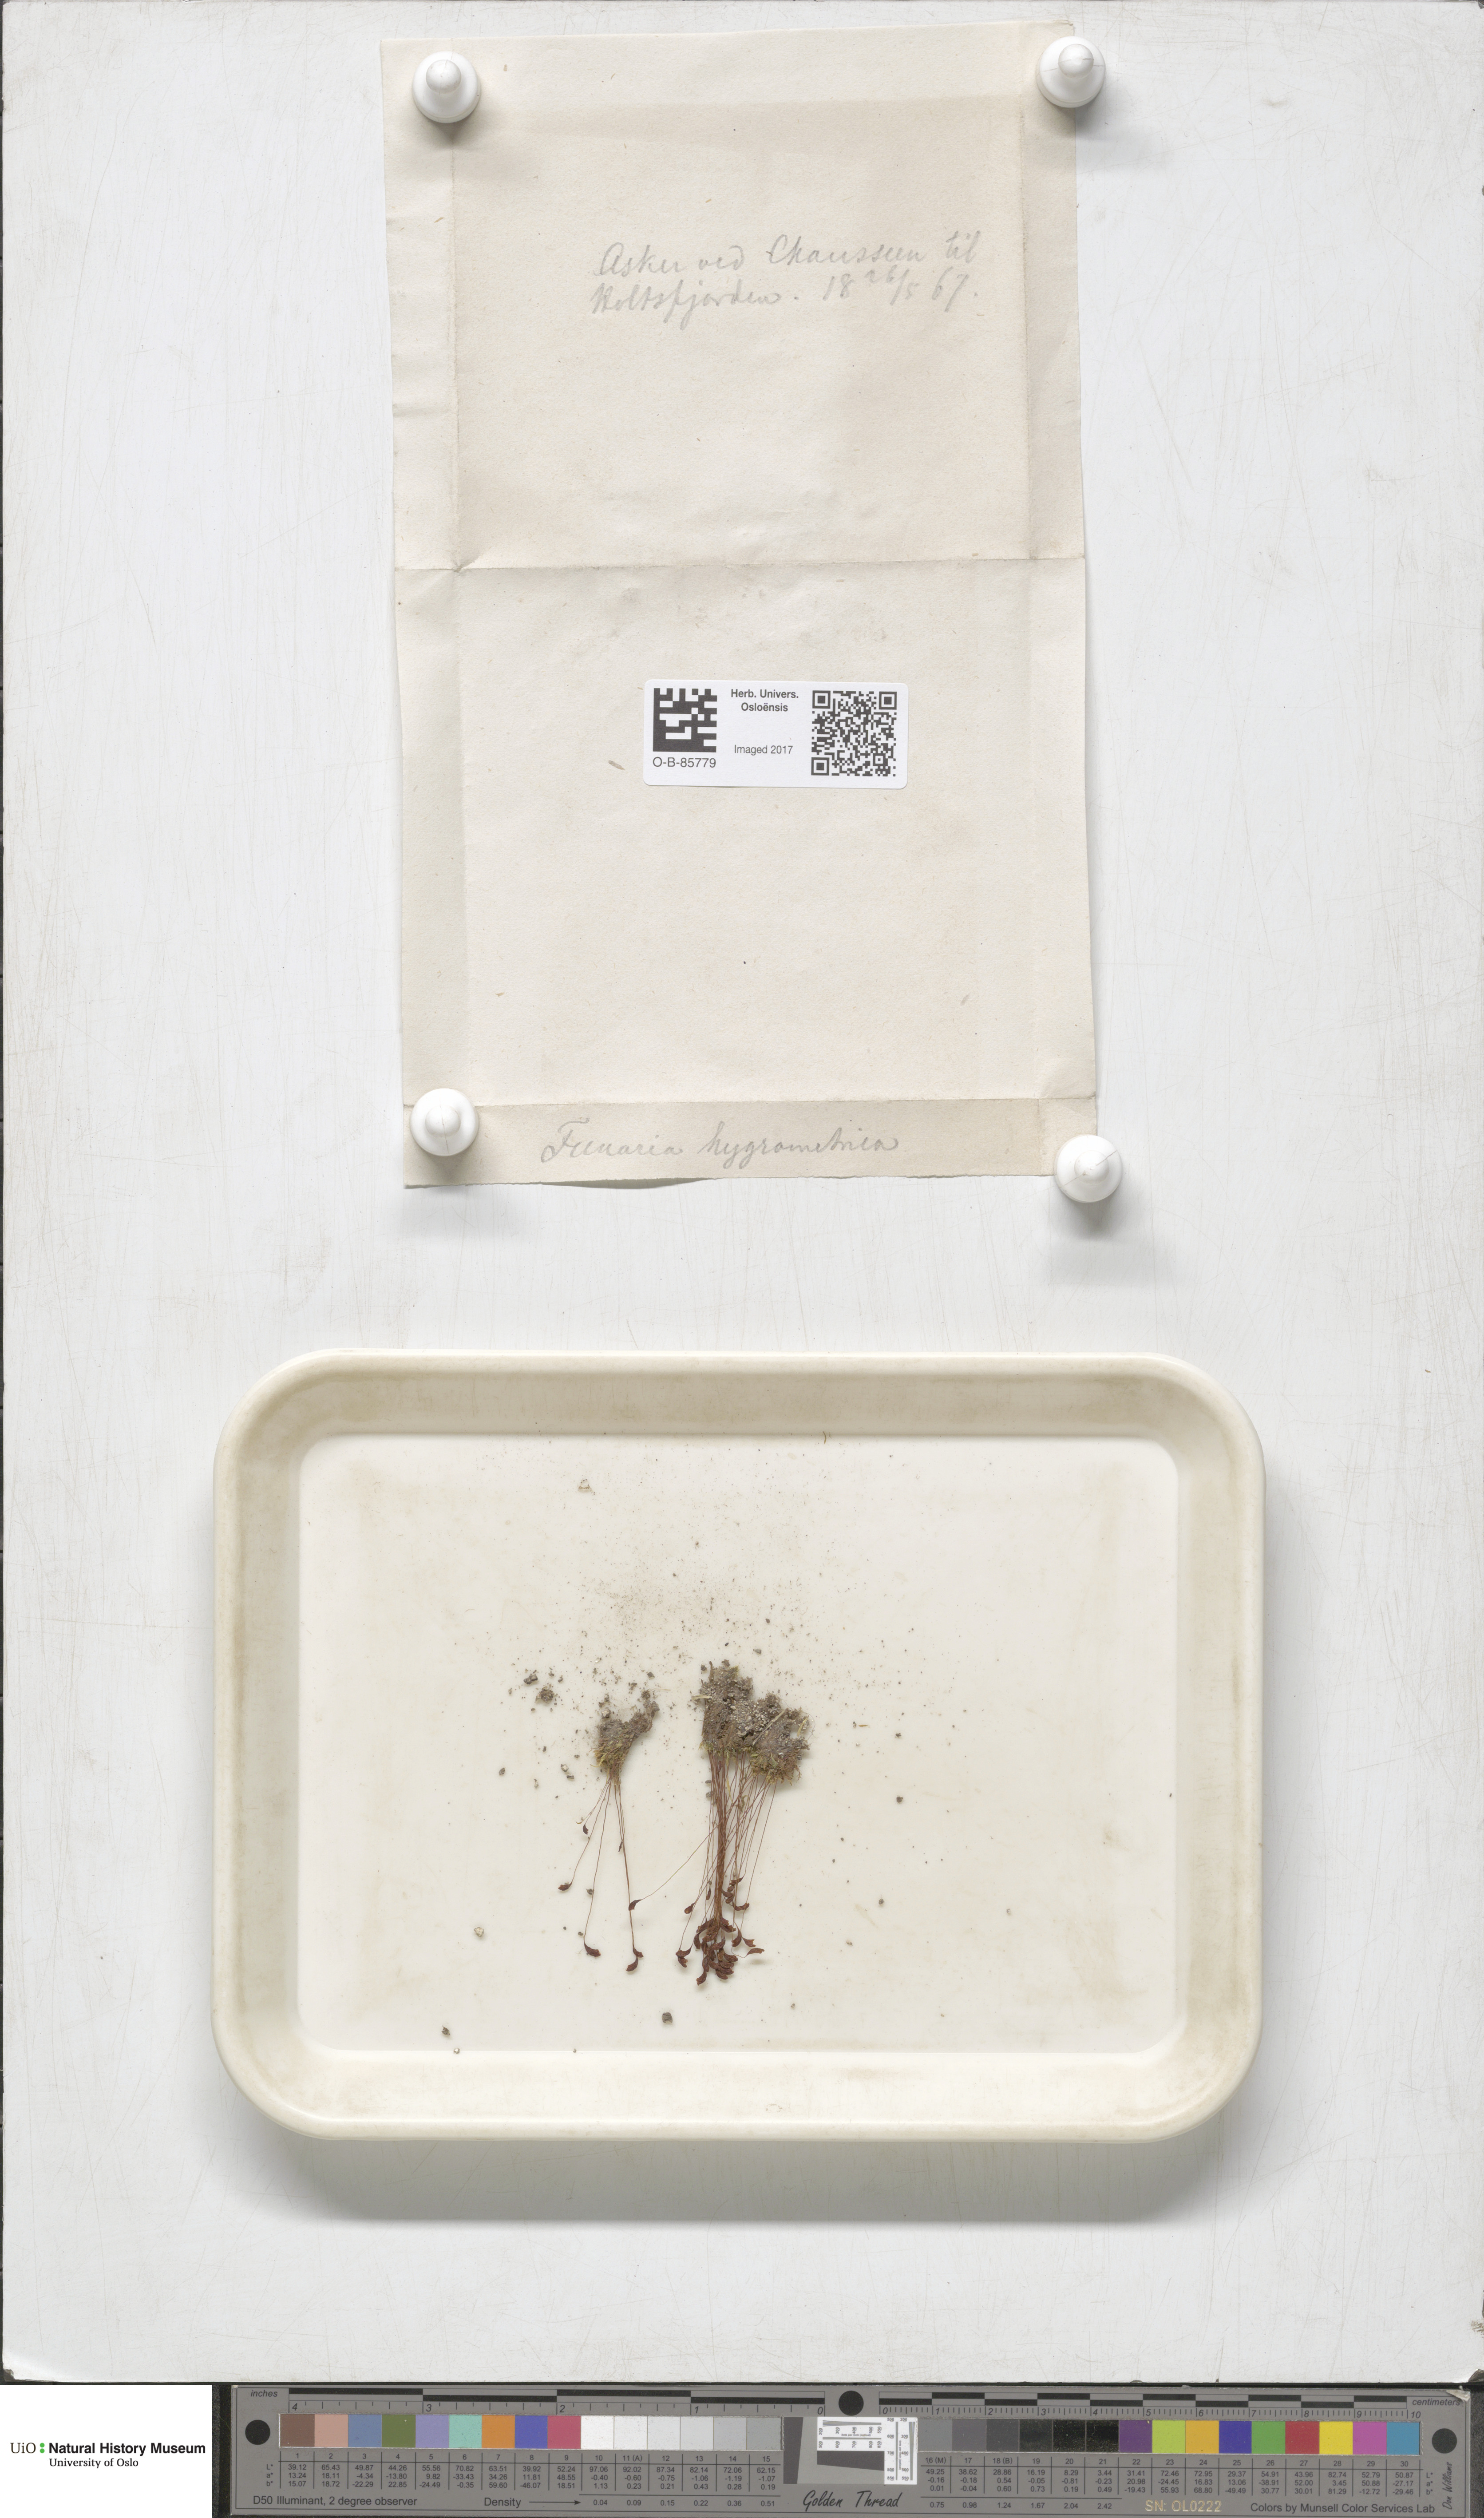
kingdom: Plantae
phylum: Bryophyta
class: Bryopsida
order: Funariales
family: Funariaceae
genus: Funaria
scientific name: Funaria hygrometrica
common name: Common cord moss
